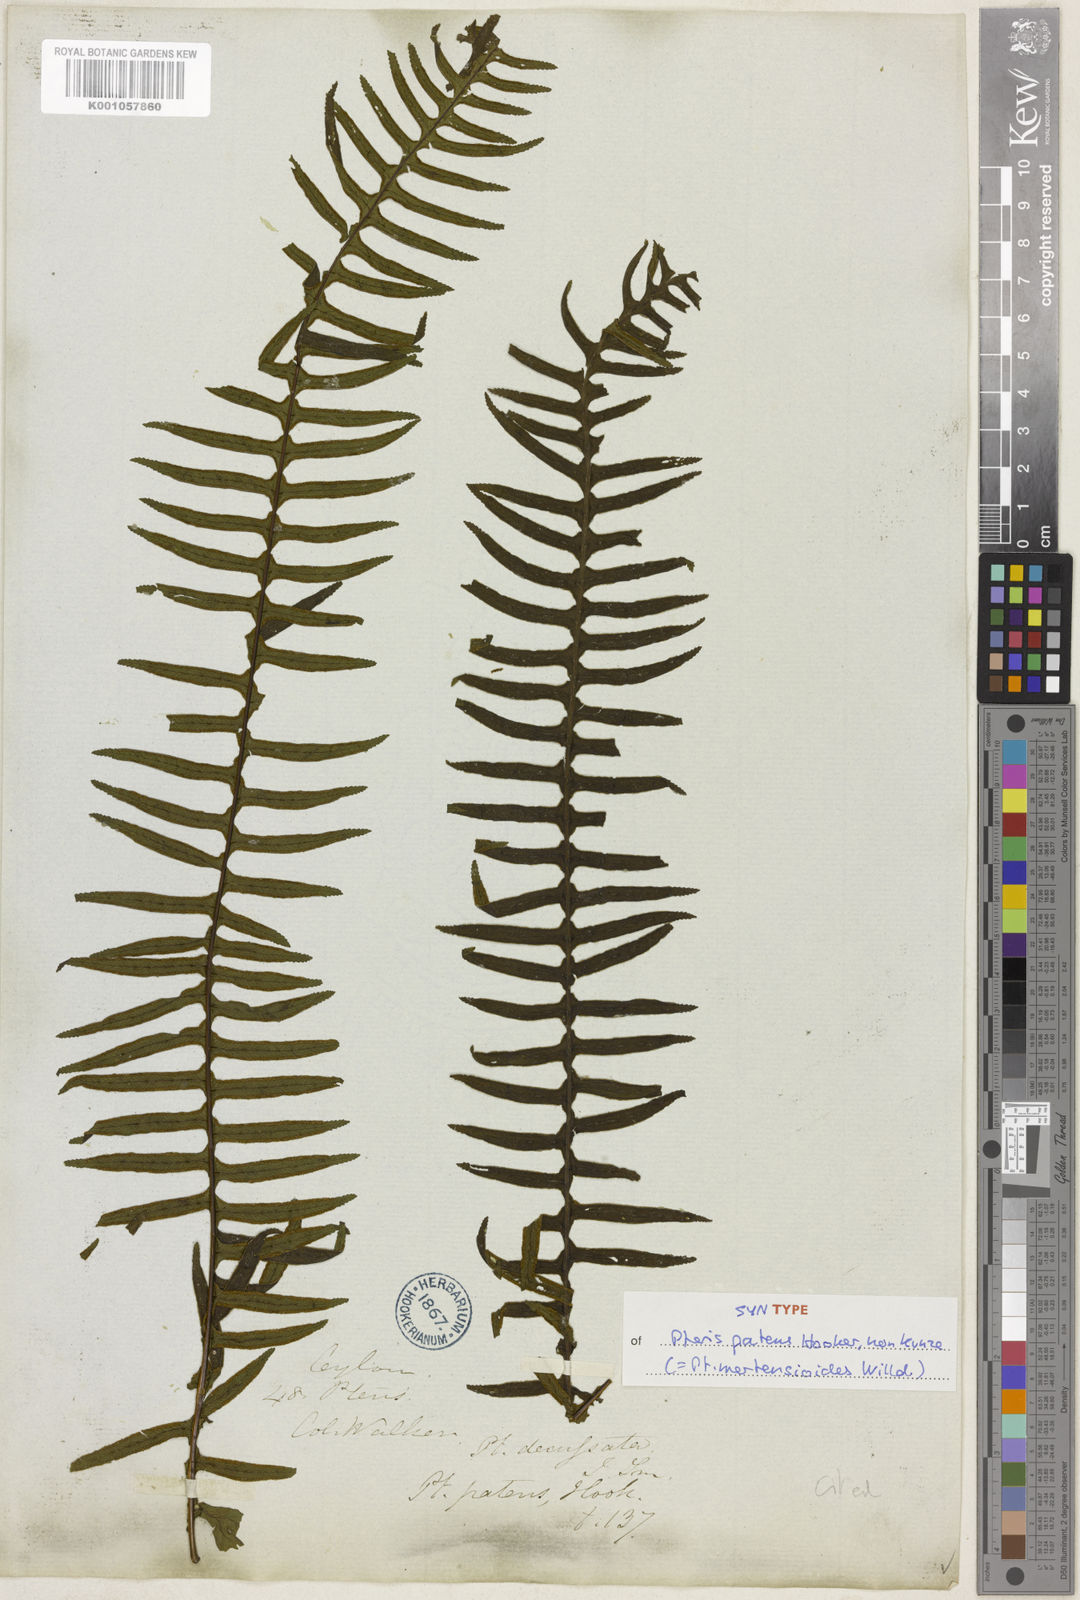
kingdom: Plantae
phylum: Tracheophyta
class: Polypodiopsida
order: Polypodiales
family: Pteridaceae
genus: Pteris
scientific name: Pteris mertensioides
